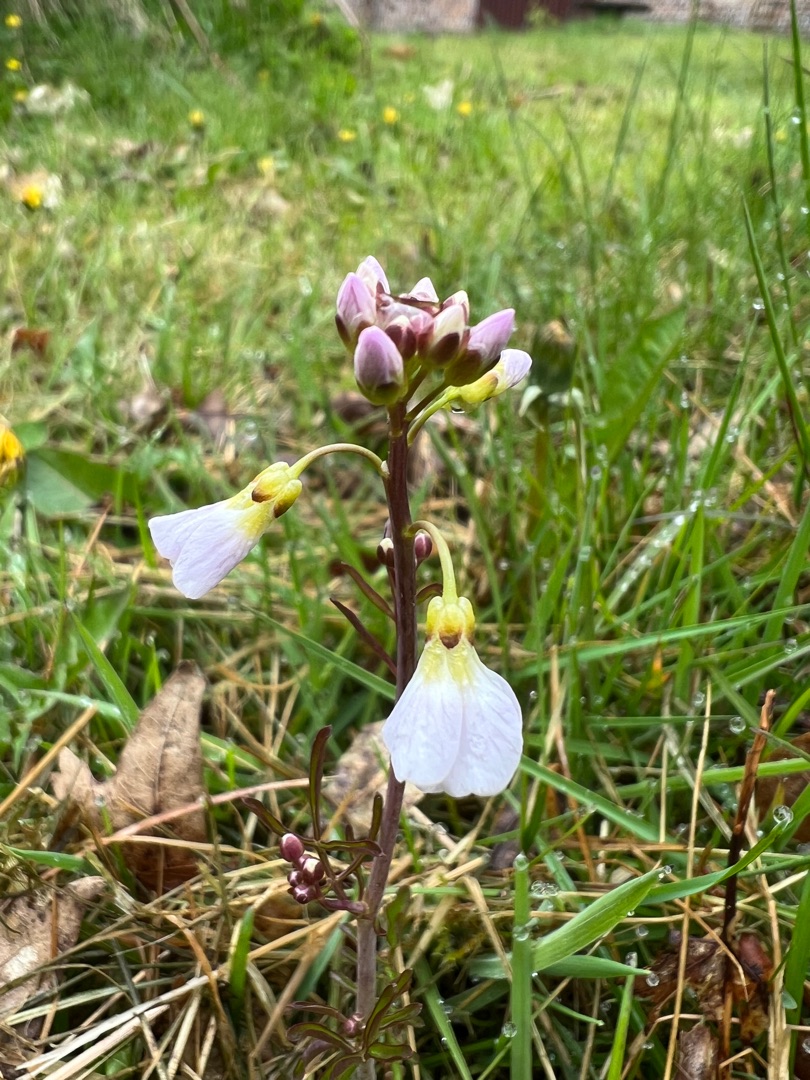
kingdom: Plantae
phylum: Tracheophyta
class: Magnoliopsida
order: Brassicales
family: Brassicaceae
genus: Cardamine
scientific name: Cardamine pratensis
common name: Engkarse
